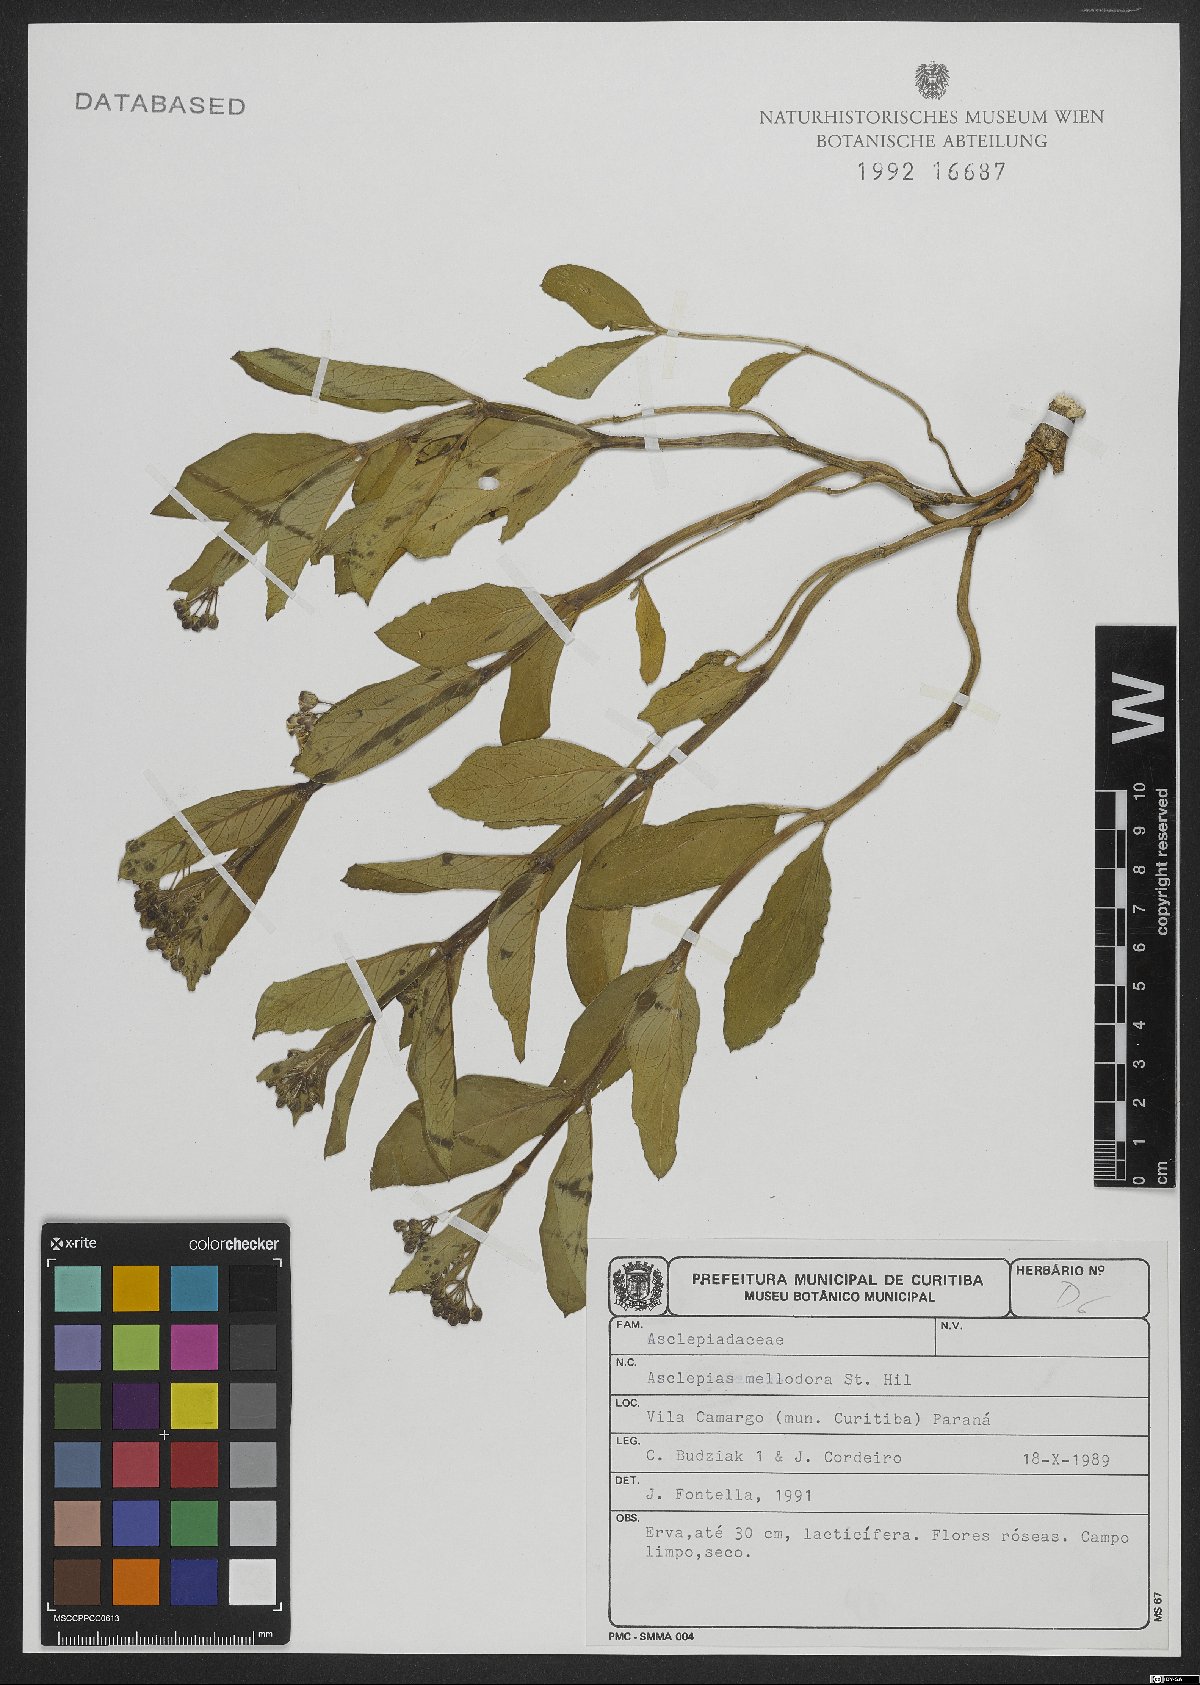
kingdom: Plantae
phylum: Tracheophyta
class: Magnoliopsida
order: Gentianales
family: Apocynaceae
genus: Asclepias
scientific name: Asclepias mellodora
